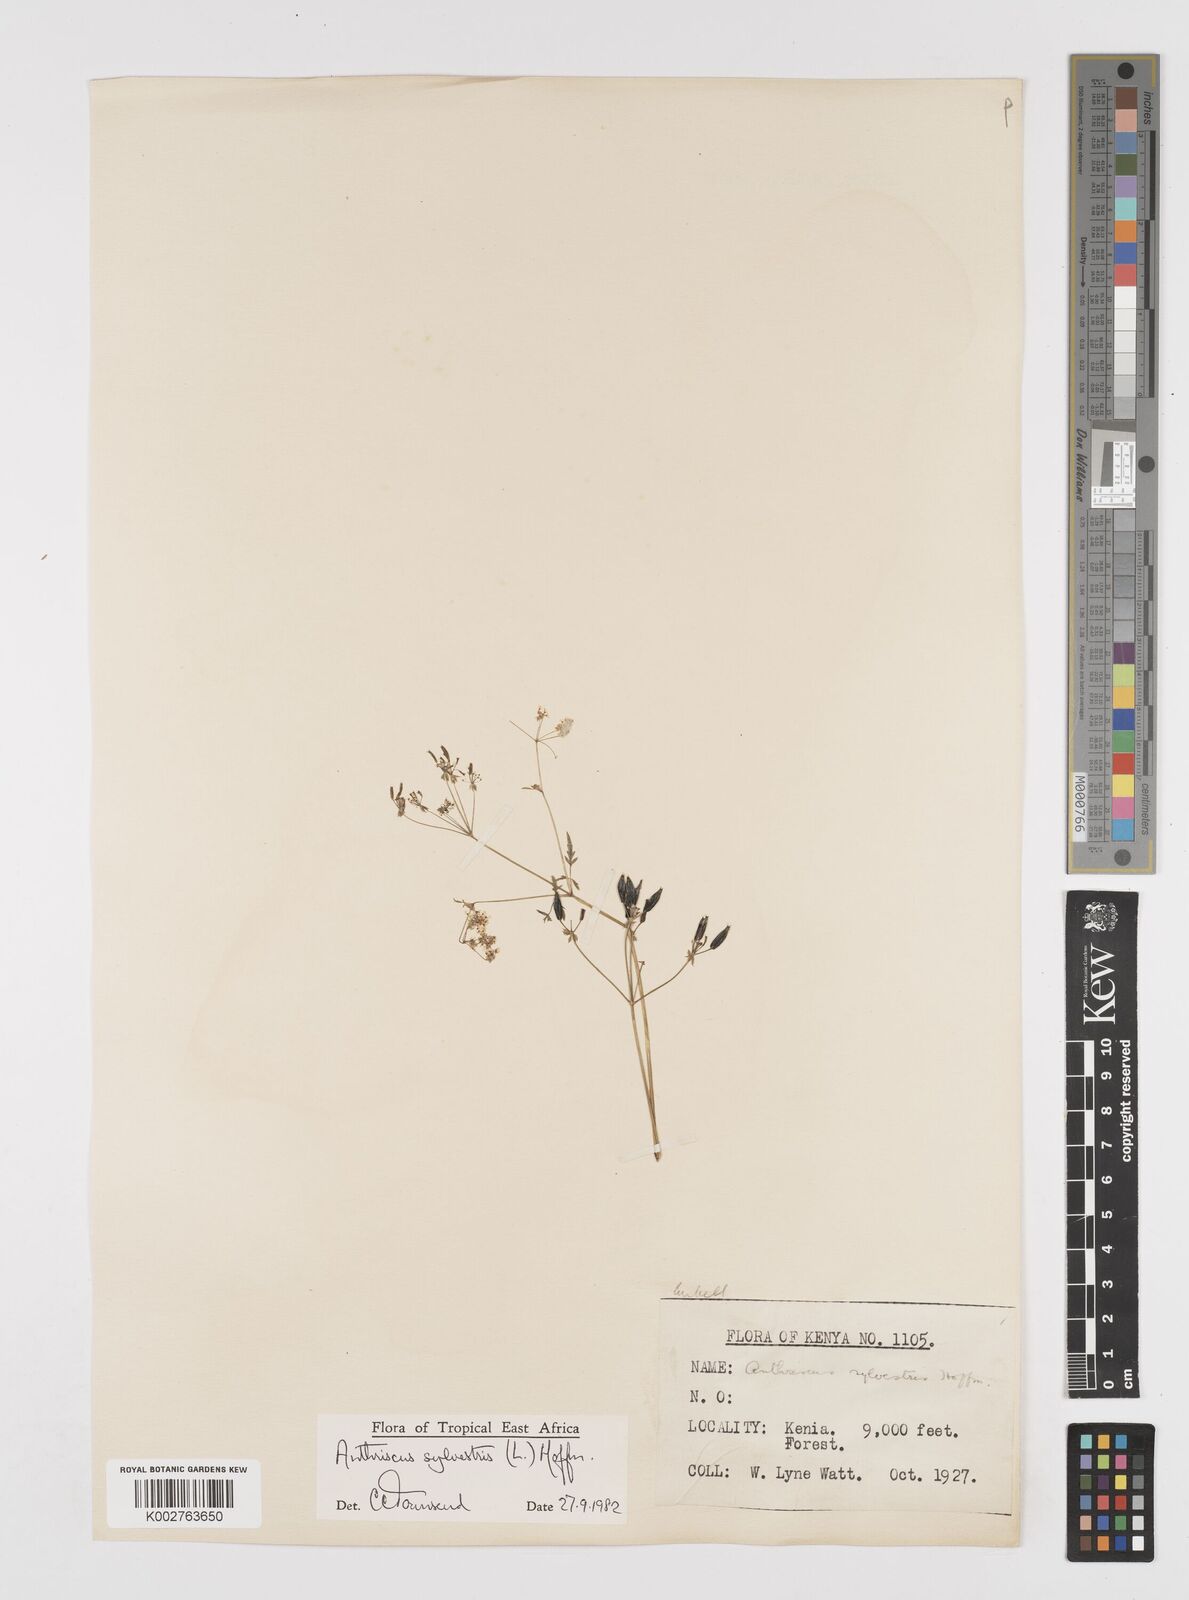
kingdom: Plantae
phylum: Tracheophyta
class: Magnoliopsida
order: Apiales
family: Apiaceae
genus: Anthriscus
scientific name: Anthriscus sylvestris
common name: Cow parsley
